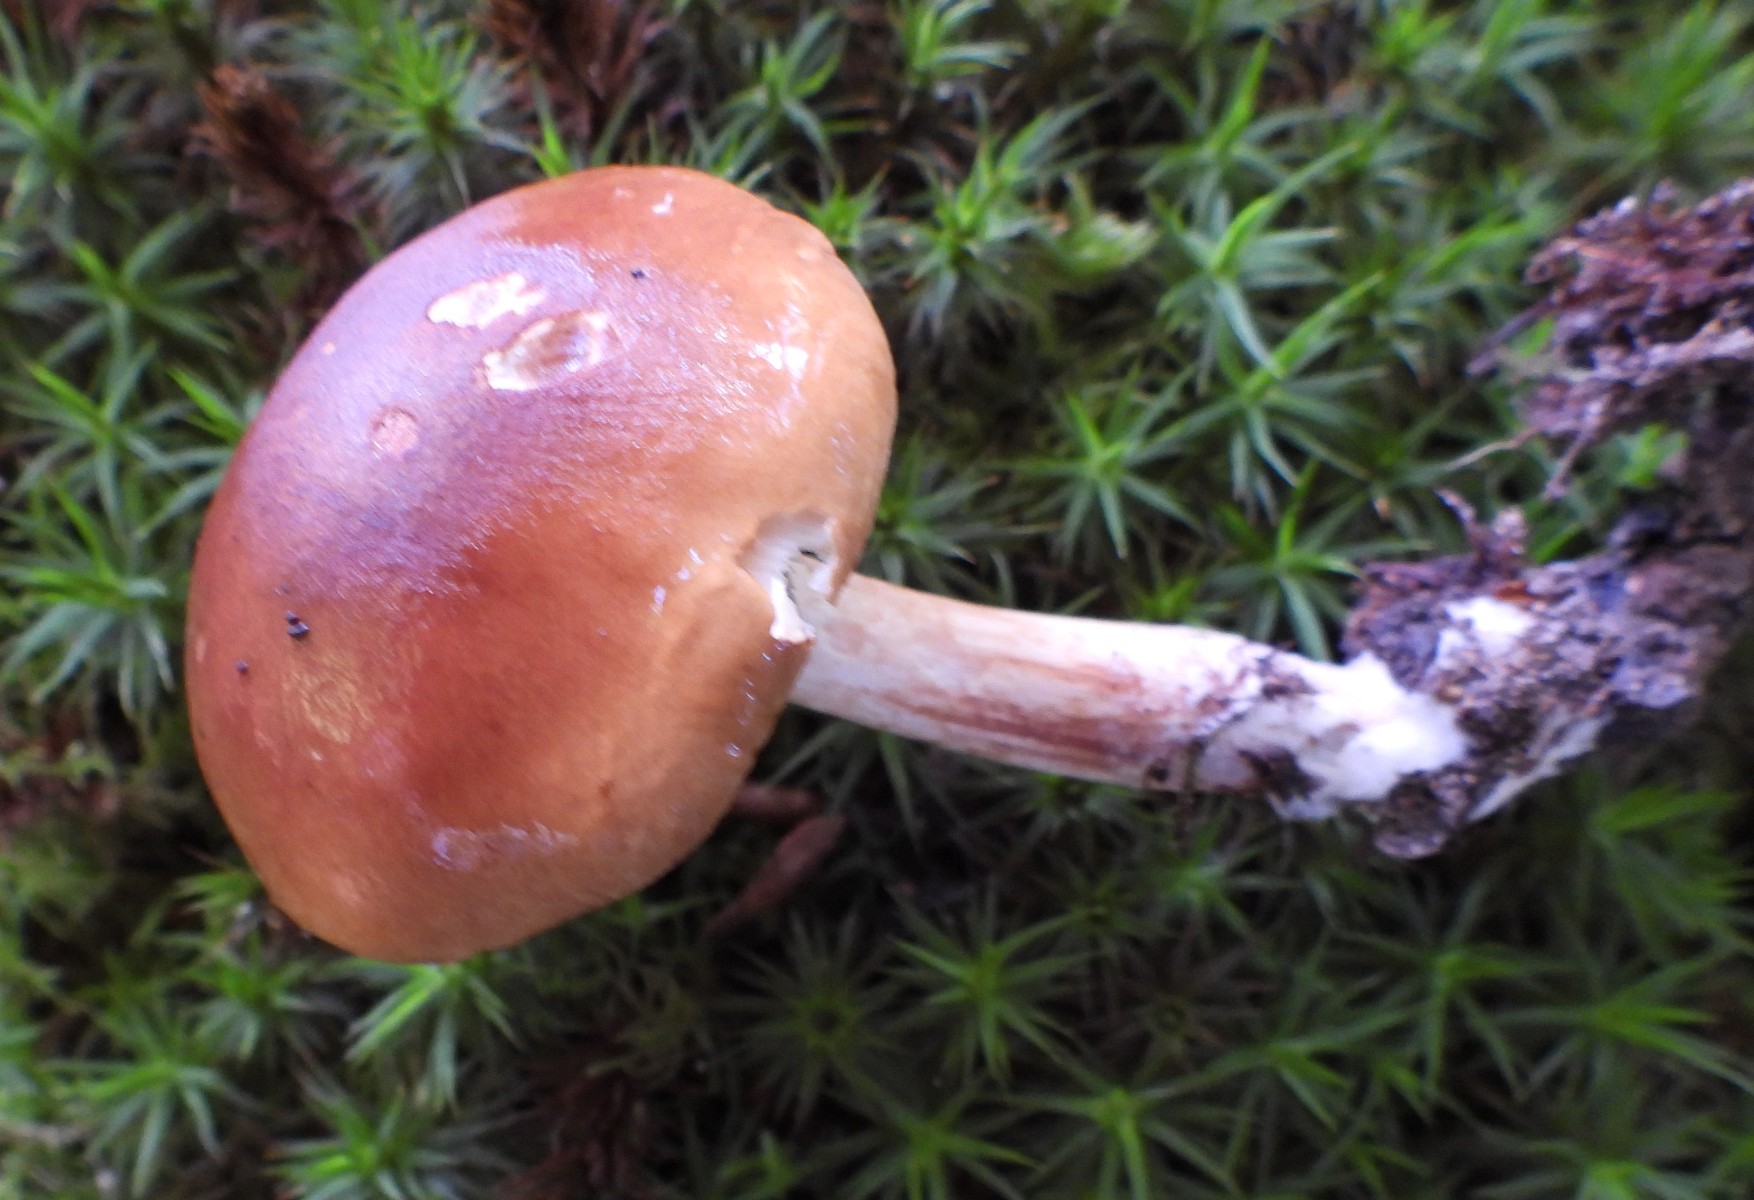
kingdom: Fungi
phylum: Basidiomycota
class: Agaricomycetes
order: Agaricales
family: Tricholomataceae
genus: Tricholoma
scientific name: Tricholoma ustale
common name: sveden ridderhat
